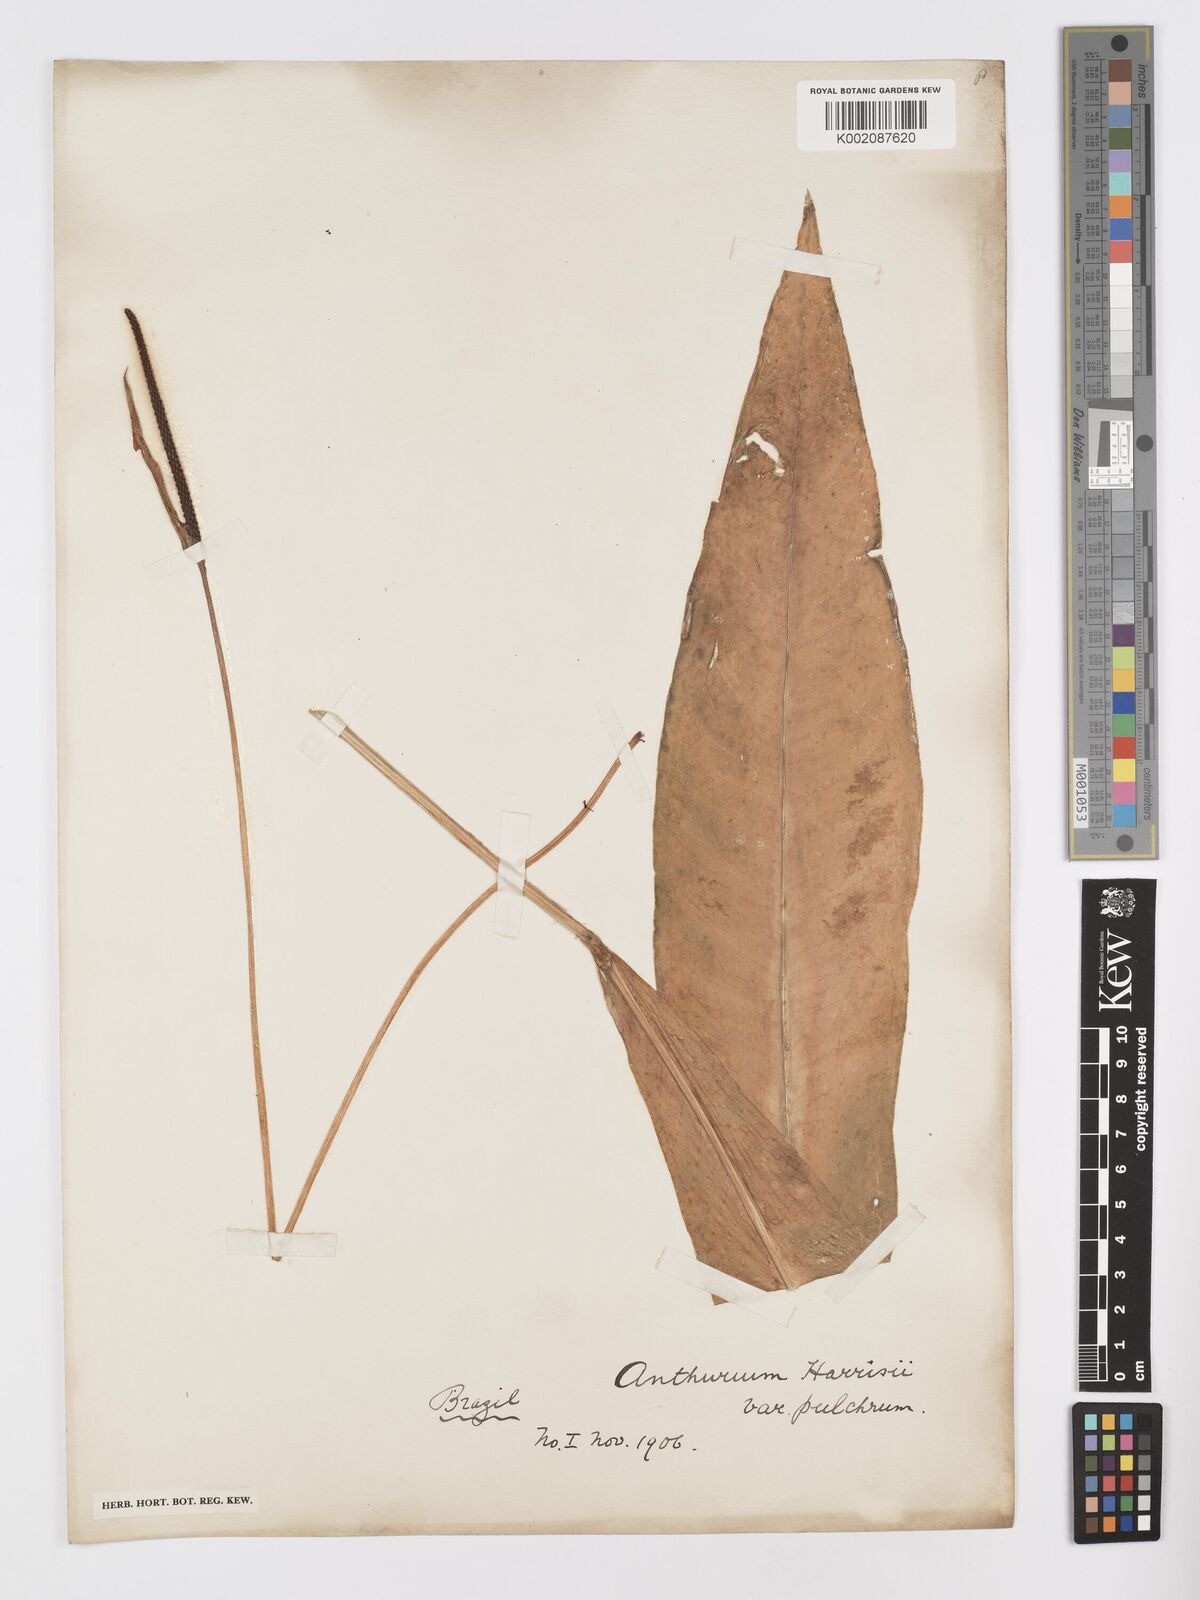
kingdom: Plantae
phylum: Tracheophyta
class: Liliopsida
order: Alismatales
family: Araceae
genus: Anthurium
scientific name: Anthurium harrisii
